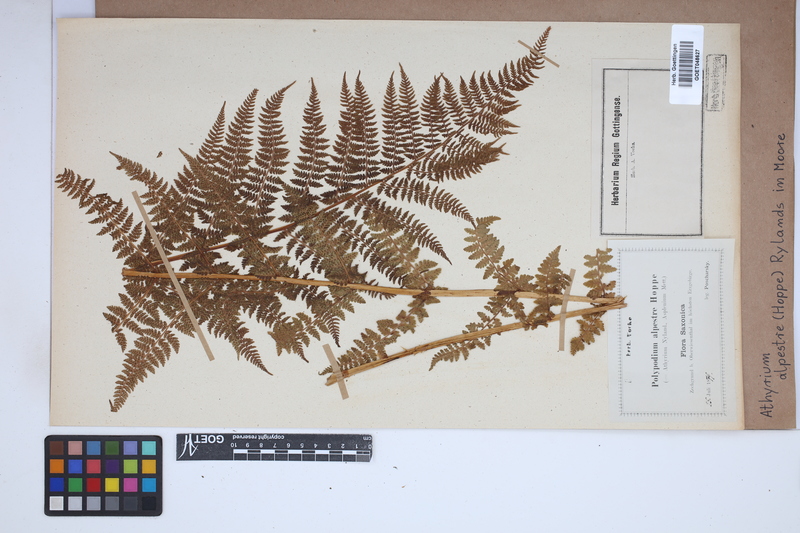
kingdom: Plantae
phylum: Tracheophyta
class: Polypodiopsida
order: Polypodiales
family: Athyriaceae
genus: Pseudathyrium
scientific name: Pseudathyrium alpestre
